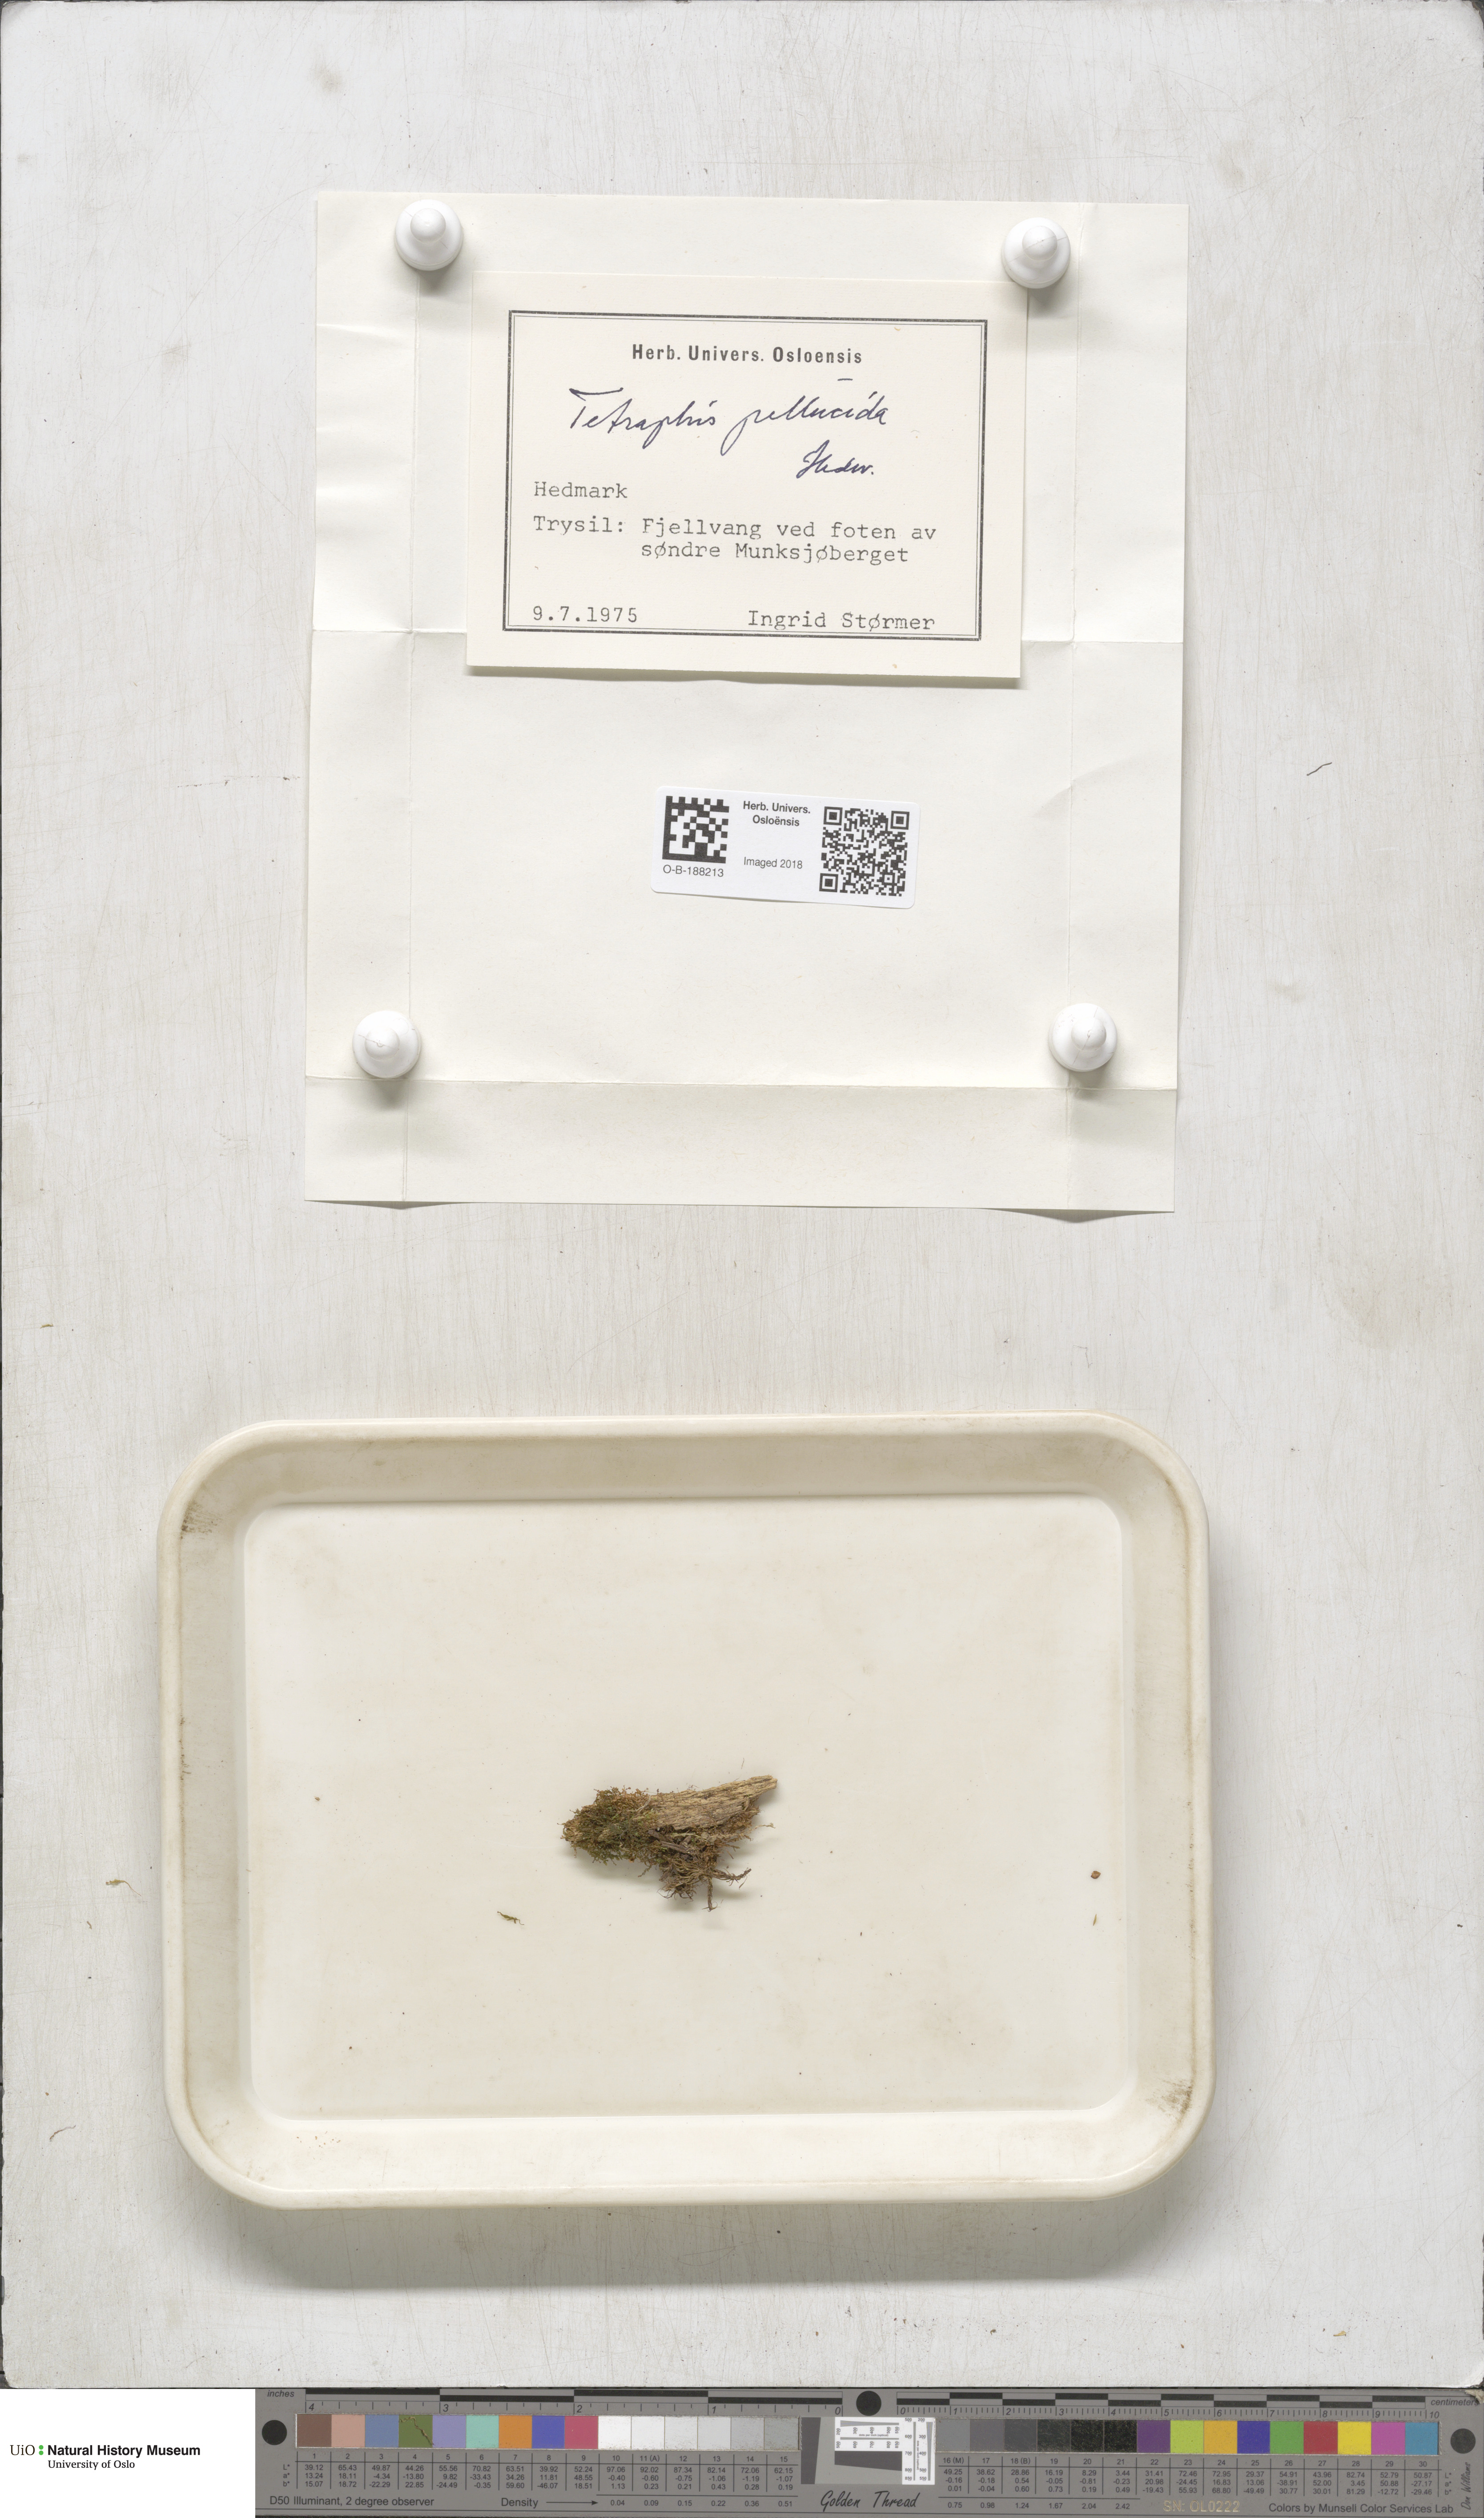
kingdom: Plantae
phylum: Bryophyta
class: Polytrichopsida
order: Tetraphidales
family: Tetraphidaceae
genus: Tetraphis
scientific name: Tetraphis pellucida
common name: Common four-toothed moss
